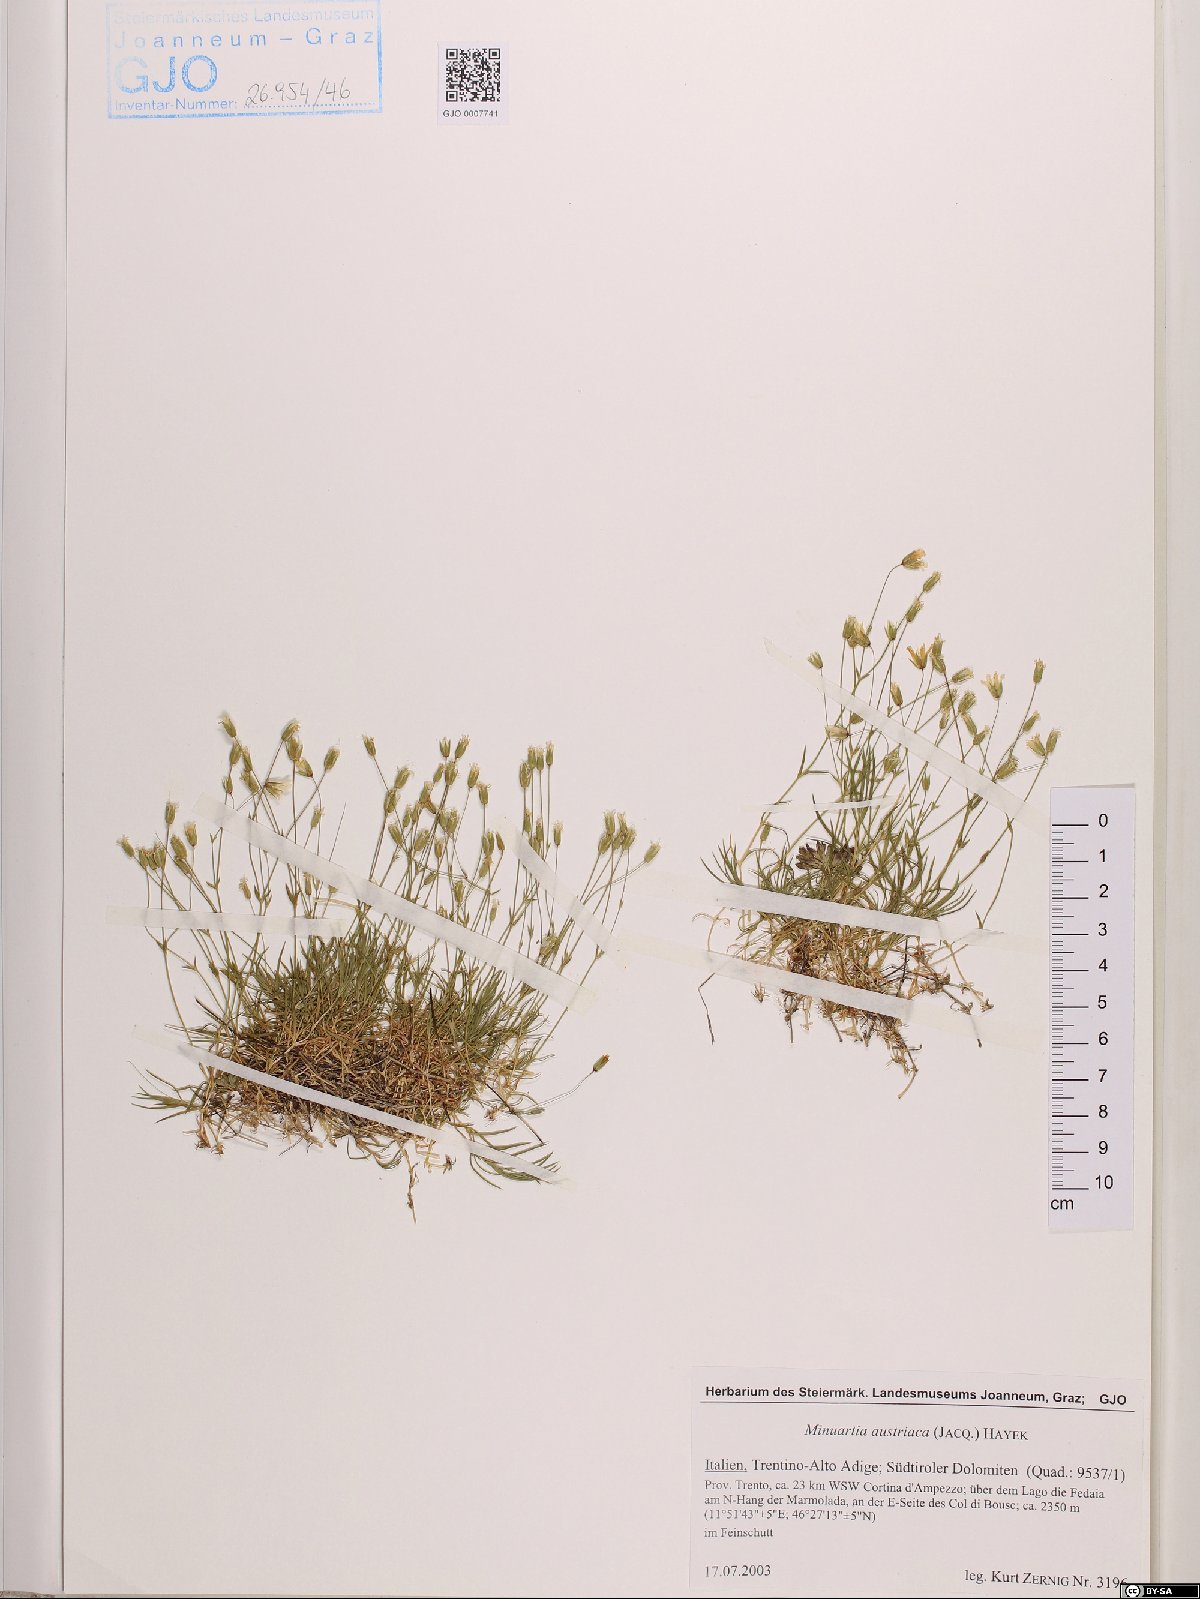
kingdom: Plantae
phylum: Tracheophyta
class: Magnoliopsida
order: Caryophyllales
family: Caryophyllaceae
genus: Sabulina
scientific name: Sabulina austriaca
